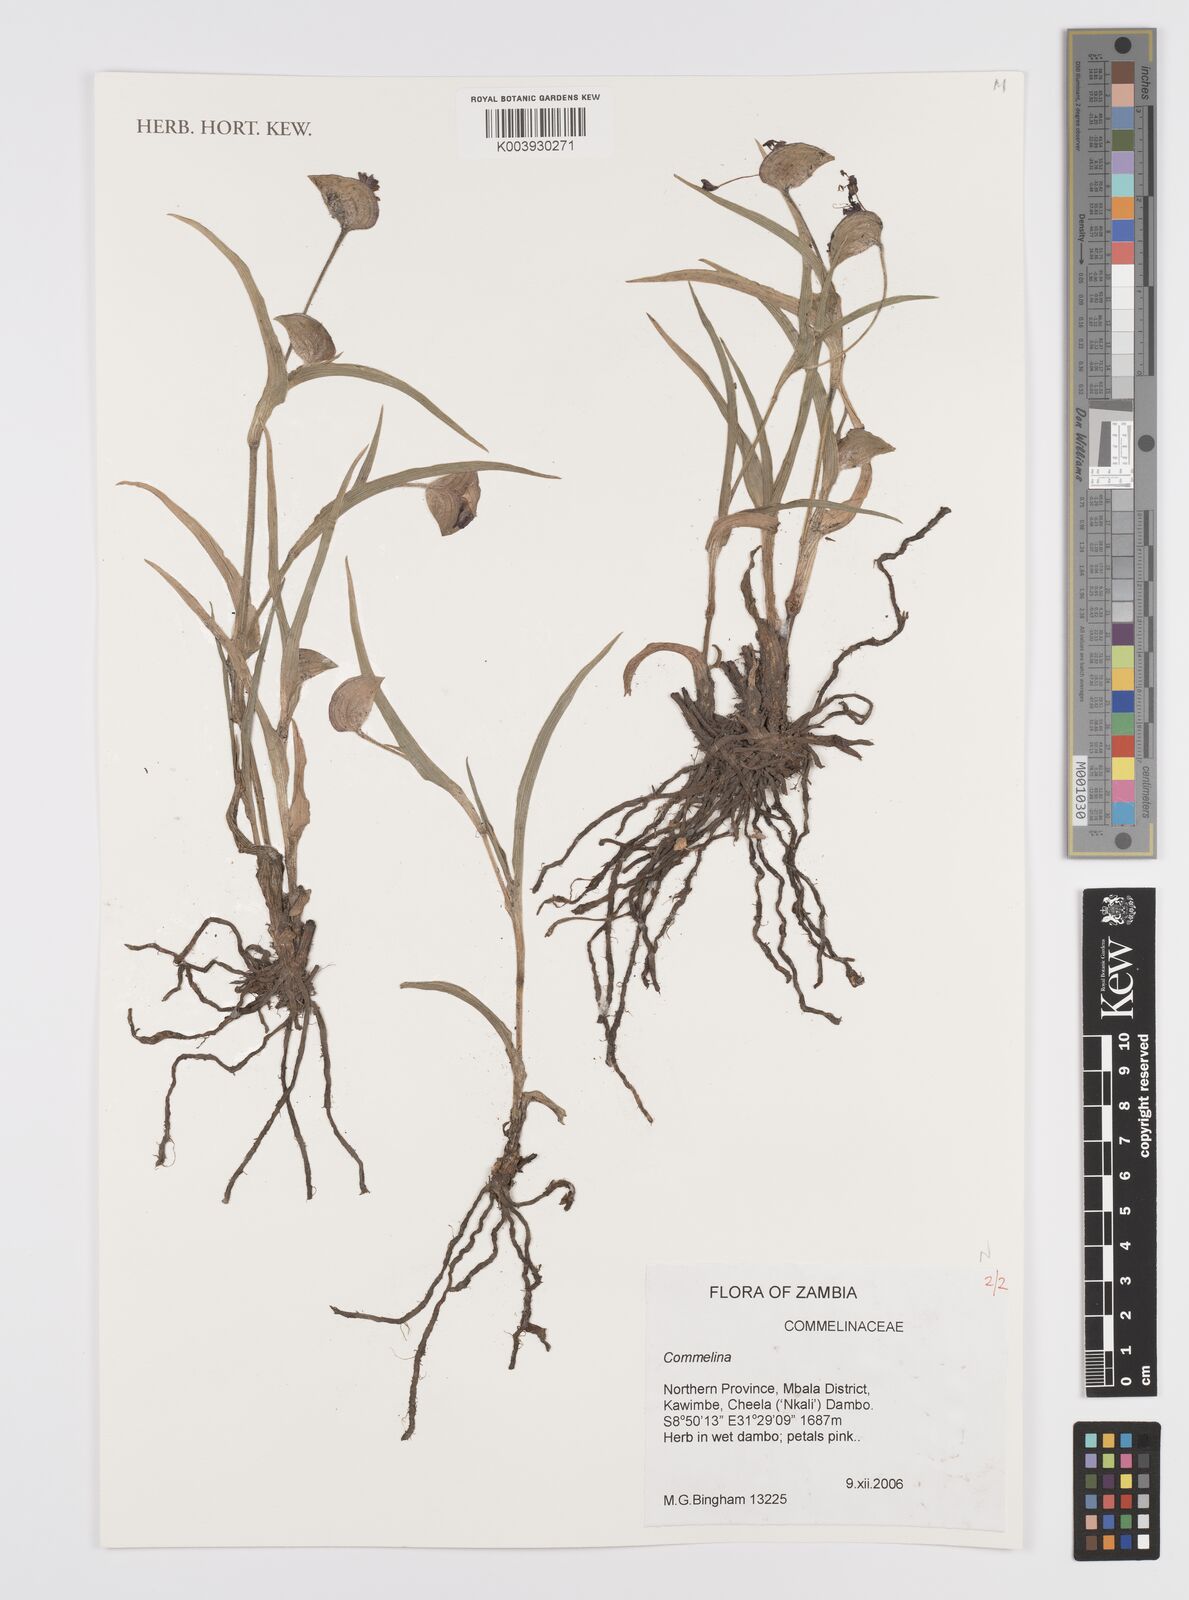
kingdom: Plantae
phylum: Tracheophyta
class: Liliopsida
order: Commelinales
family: Commelinaceae
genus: Commelina
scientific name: Commelina schweinfurthii
